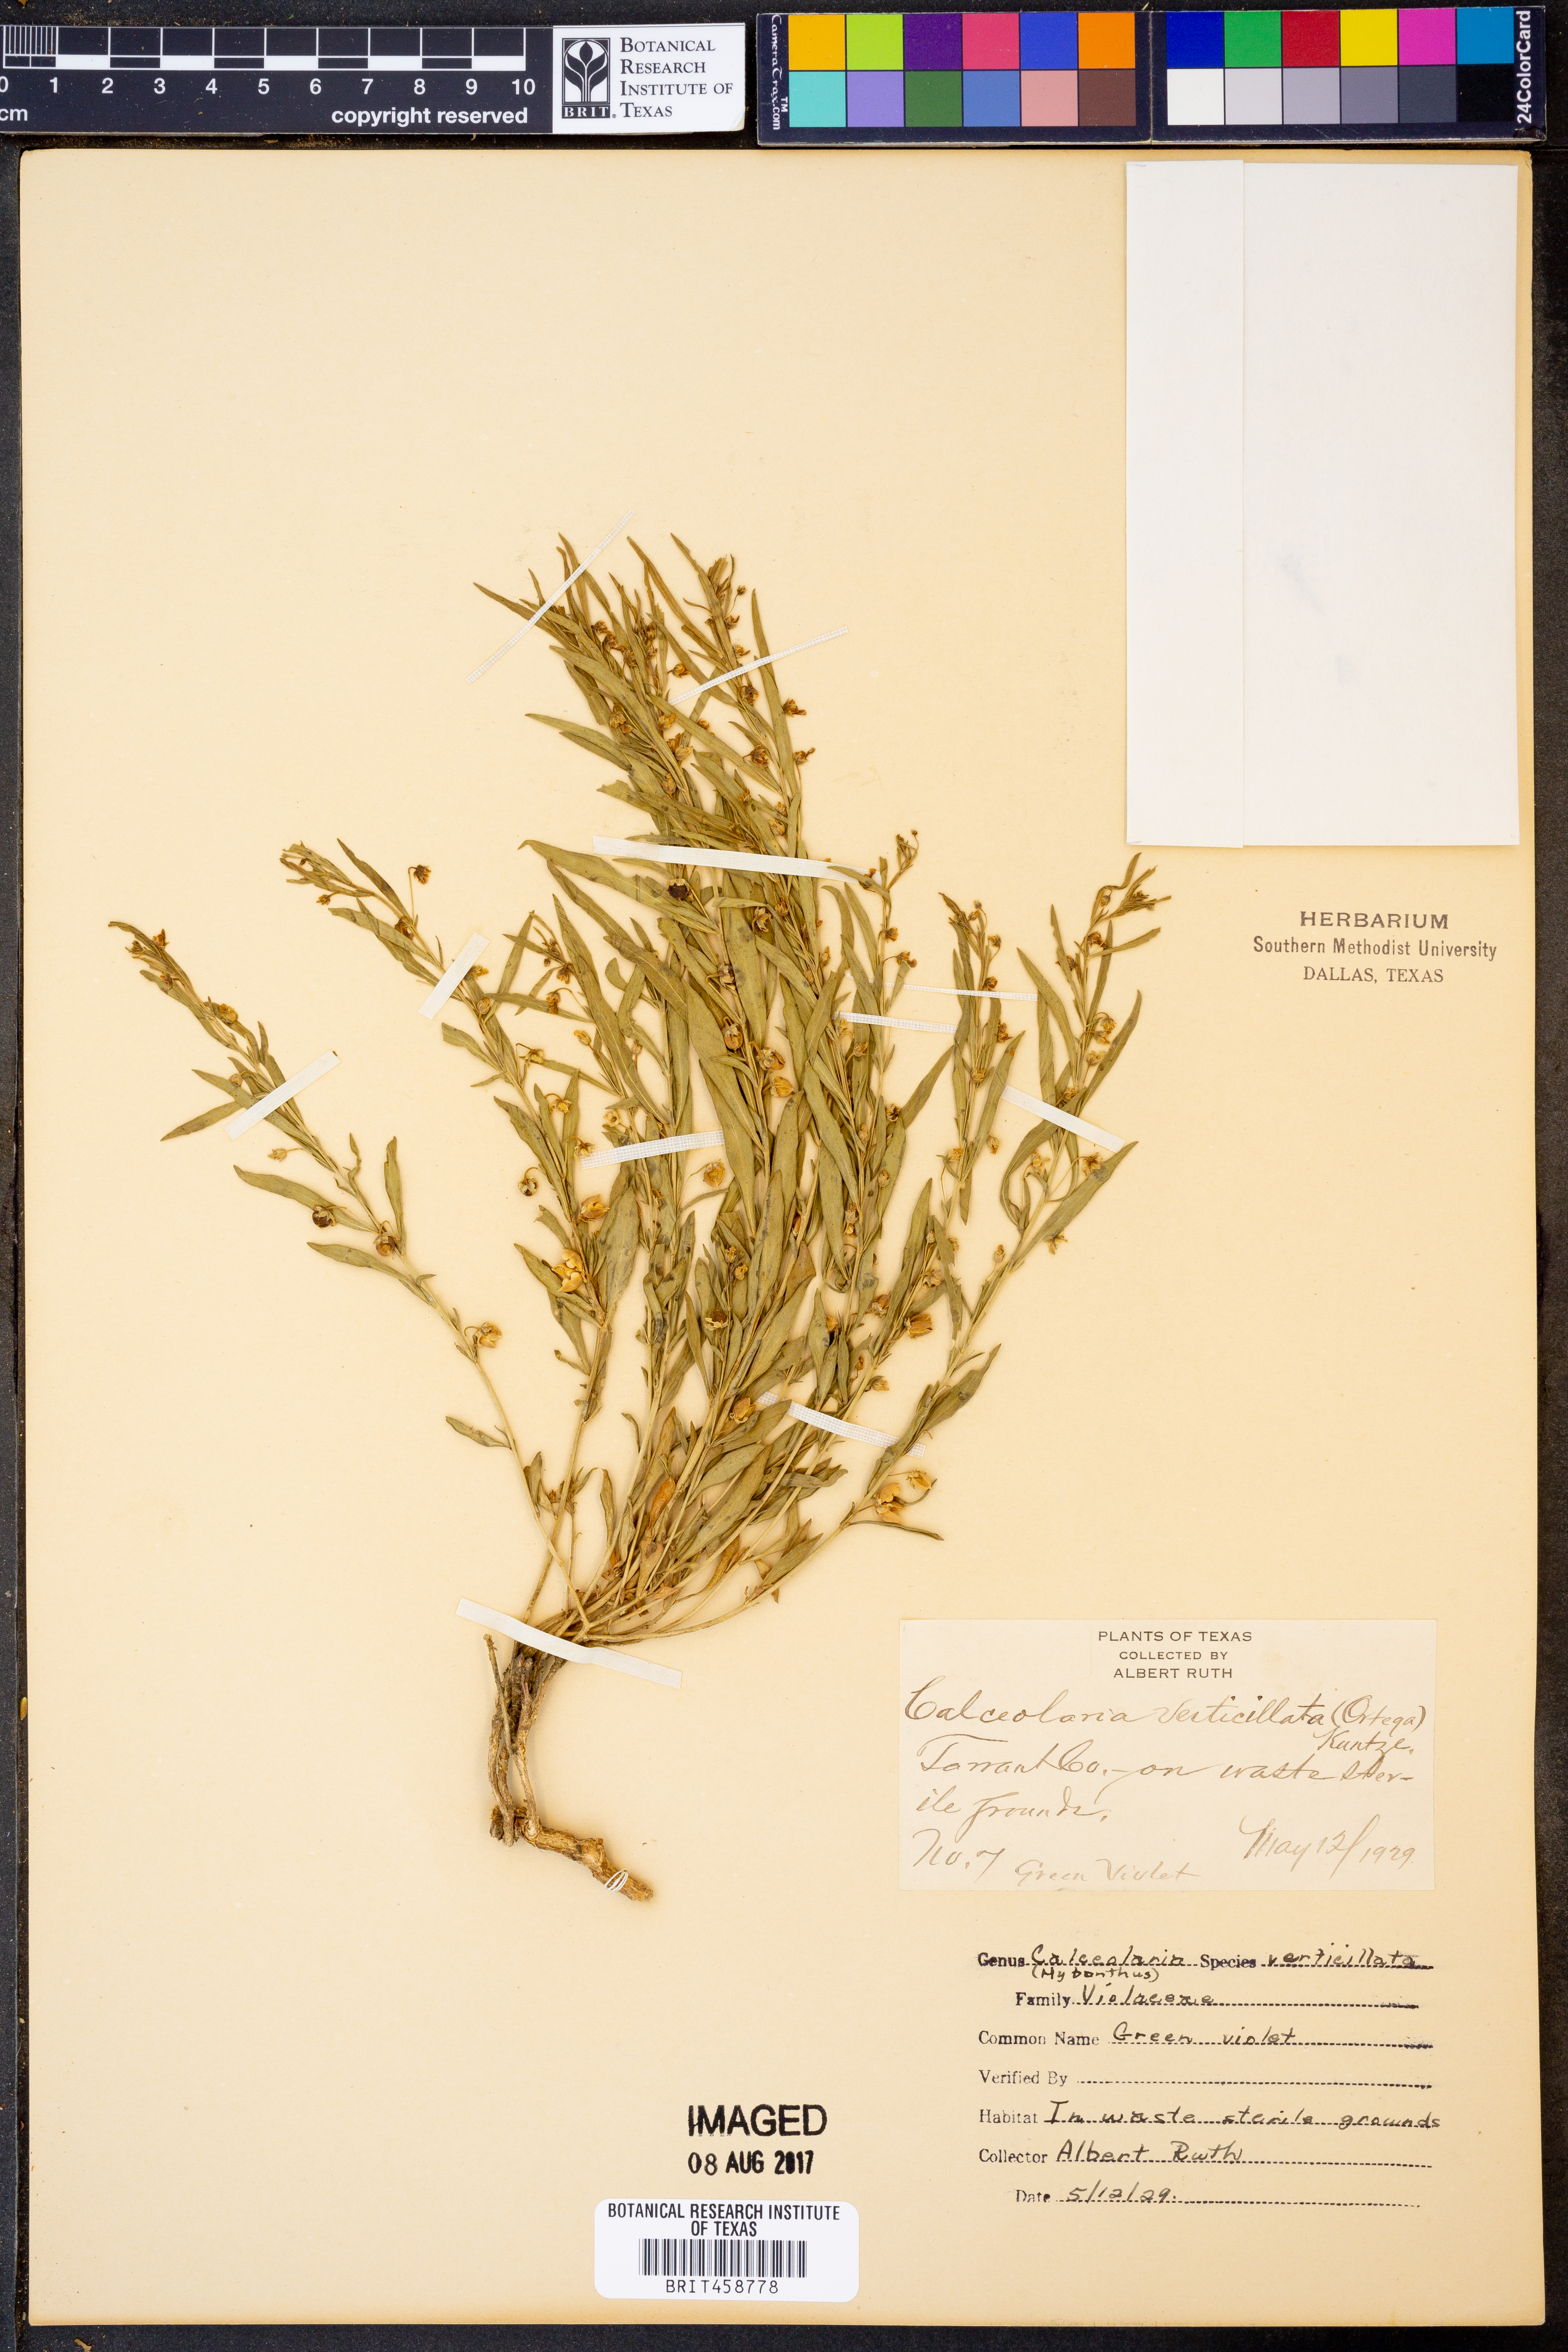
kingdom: Plantae
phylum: Tracheophyta
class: Magnoliopsida
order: Malpighiales
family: Violaceae
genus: Pombalia
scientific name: Pombalia verticillata
